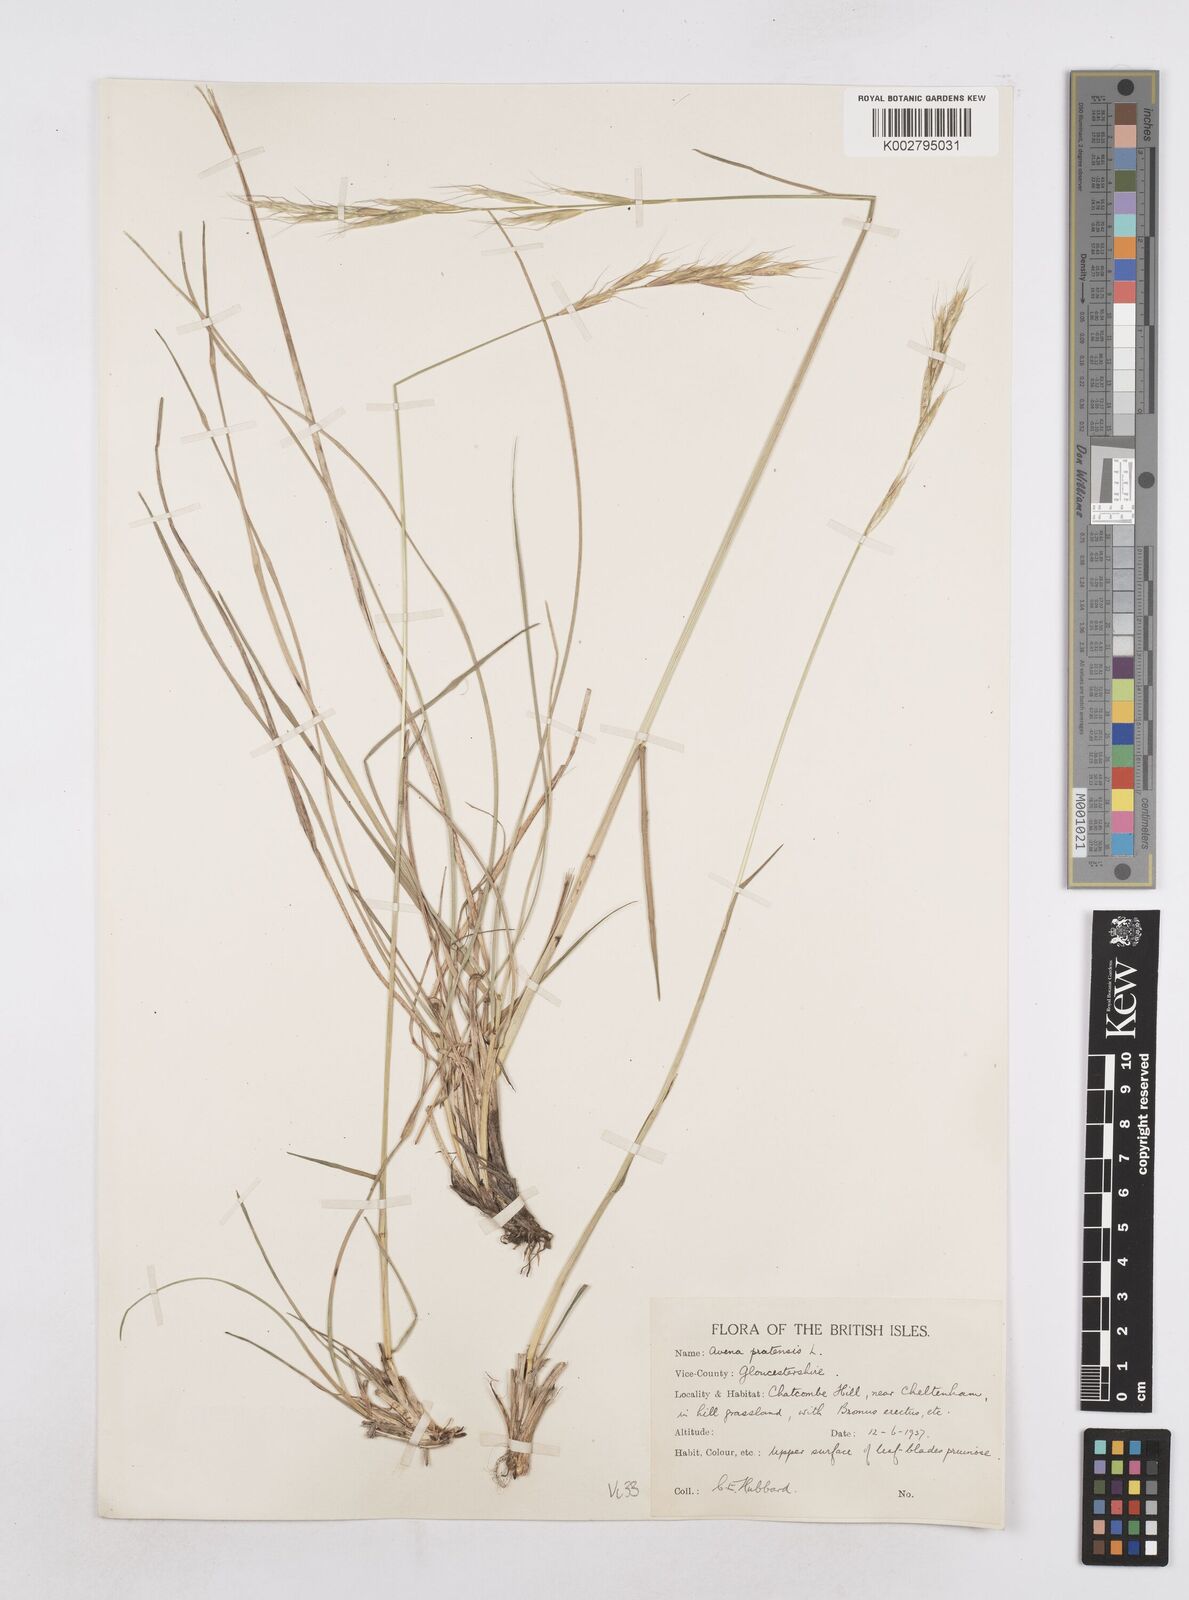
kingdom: Plantae
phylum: Tracheophyta
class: Liliopsida
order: Poales
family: Poaceae
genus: Helictochloa
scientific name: Helictochloa pratensis
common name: Meadow oat grass
